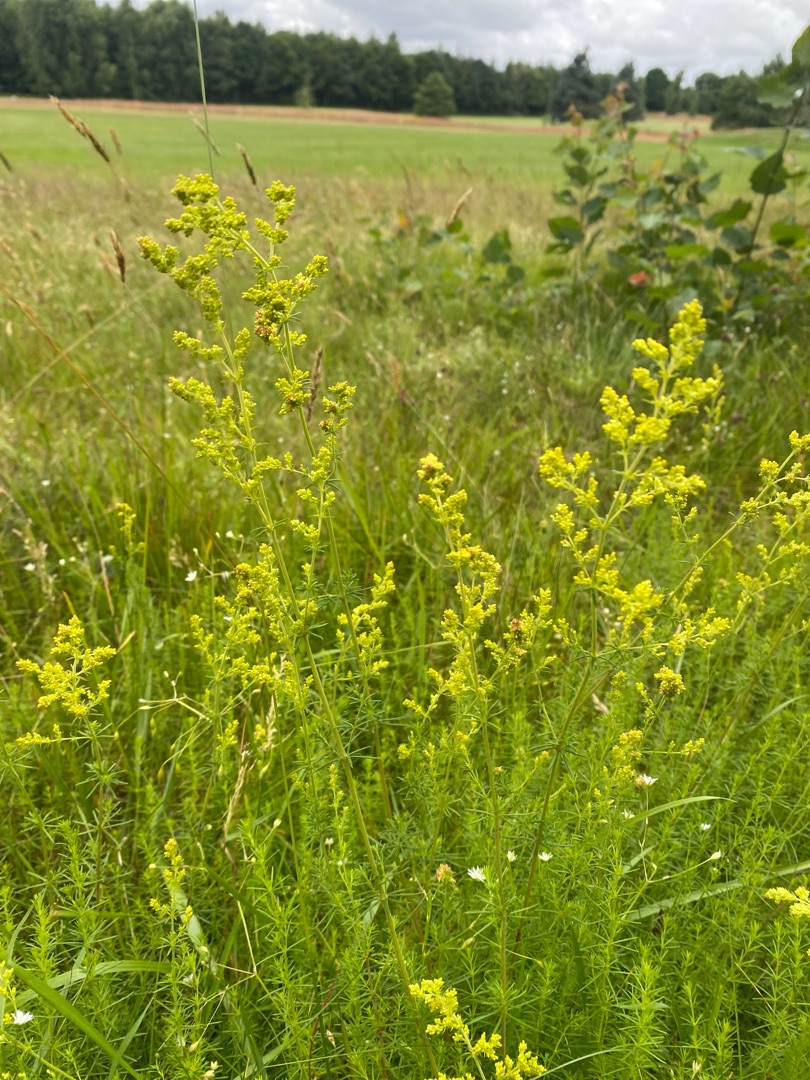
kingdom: Plantae
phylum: Tracheophyta
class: Magnoliopsida
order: Gentianales
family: Rubiaceae
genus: Galium
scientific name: Galium verum
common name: Gul snerre
